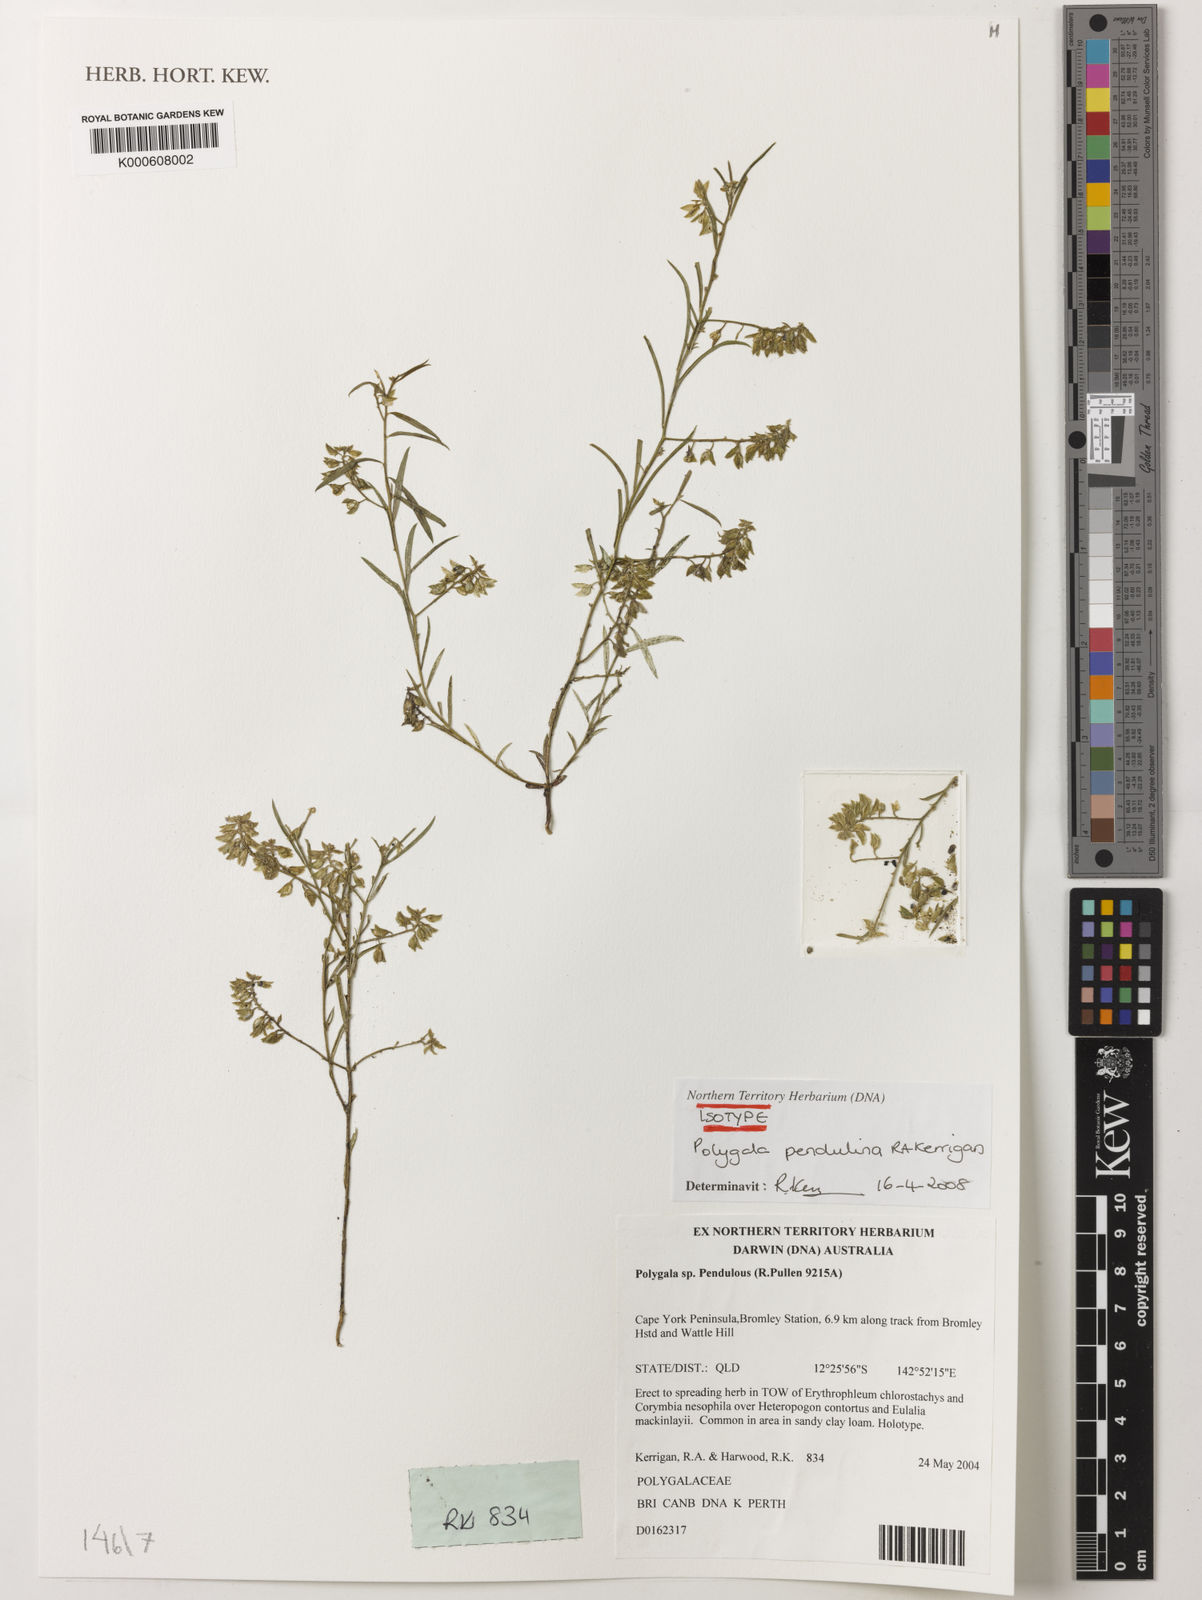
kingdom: Plantae
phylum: Tracheophyta
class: Magnoliopsida
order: Fabales
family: Polygalaceae
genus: Polygala
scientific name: Polygala pendulina
